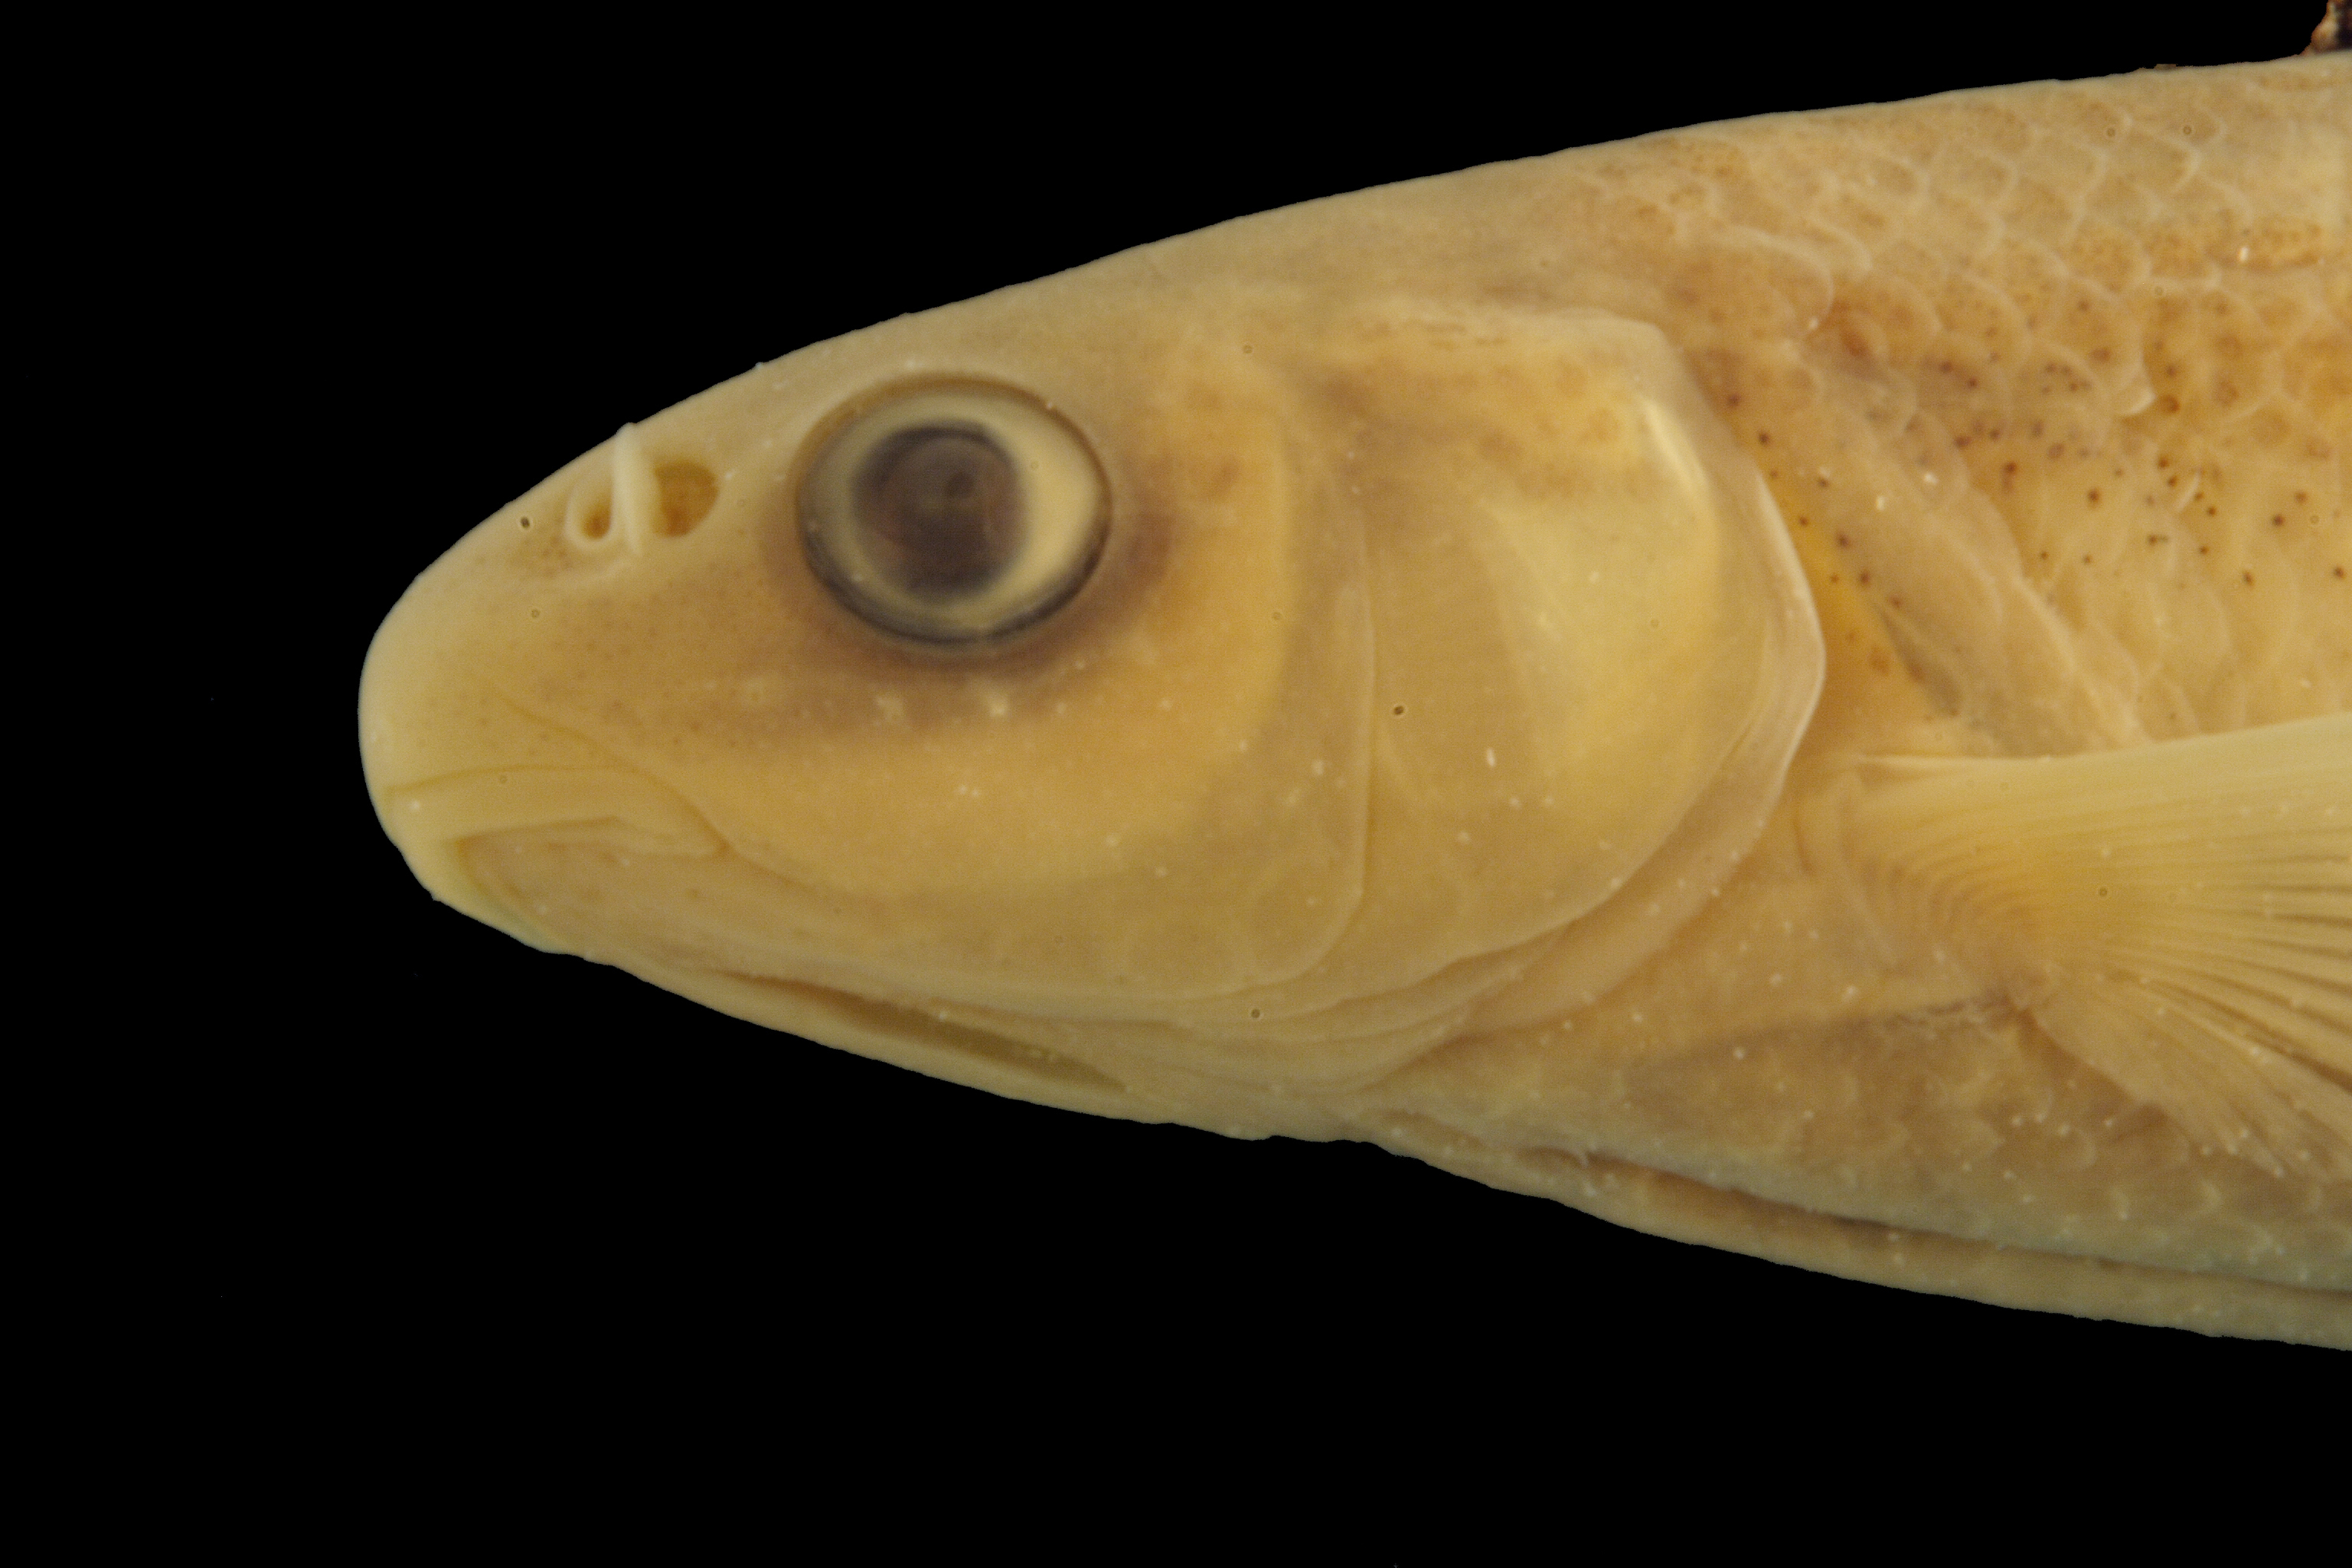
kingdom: Animalia
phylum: Chordata
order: Cypriniformes
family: Cyprinidae
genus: Hybognathus
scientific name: Hybognathus placitus
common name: Plains minnow
